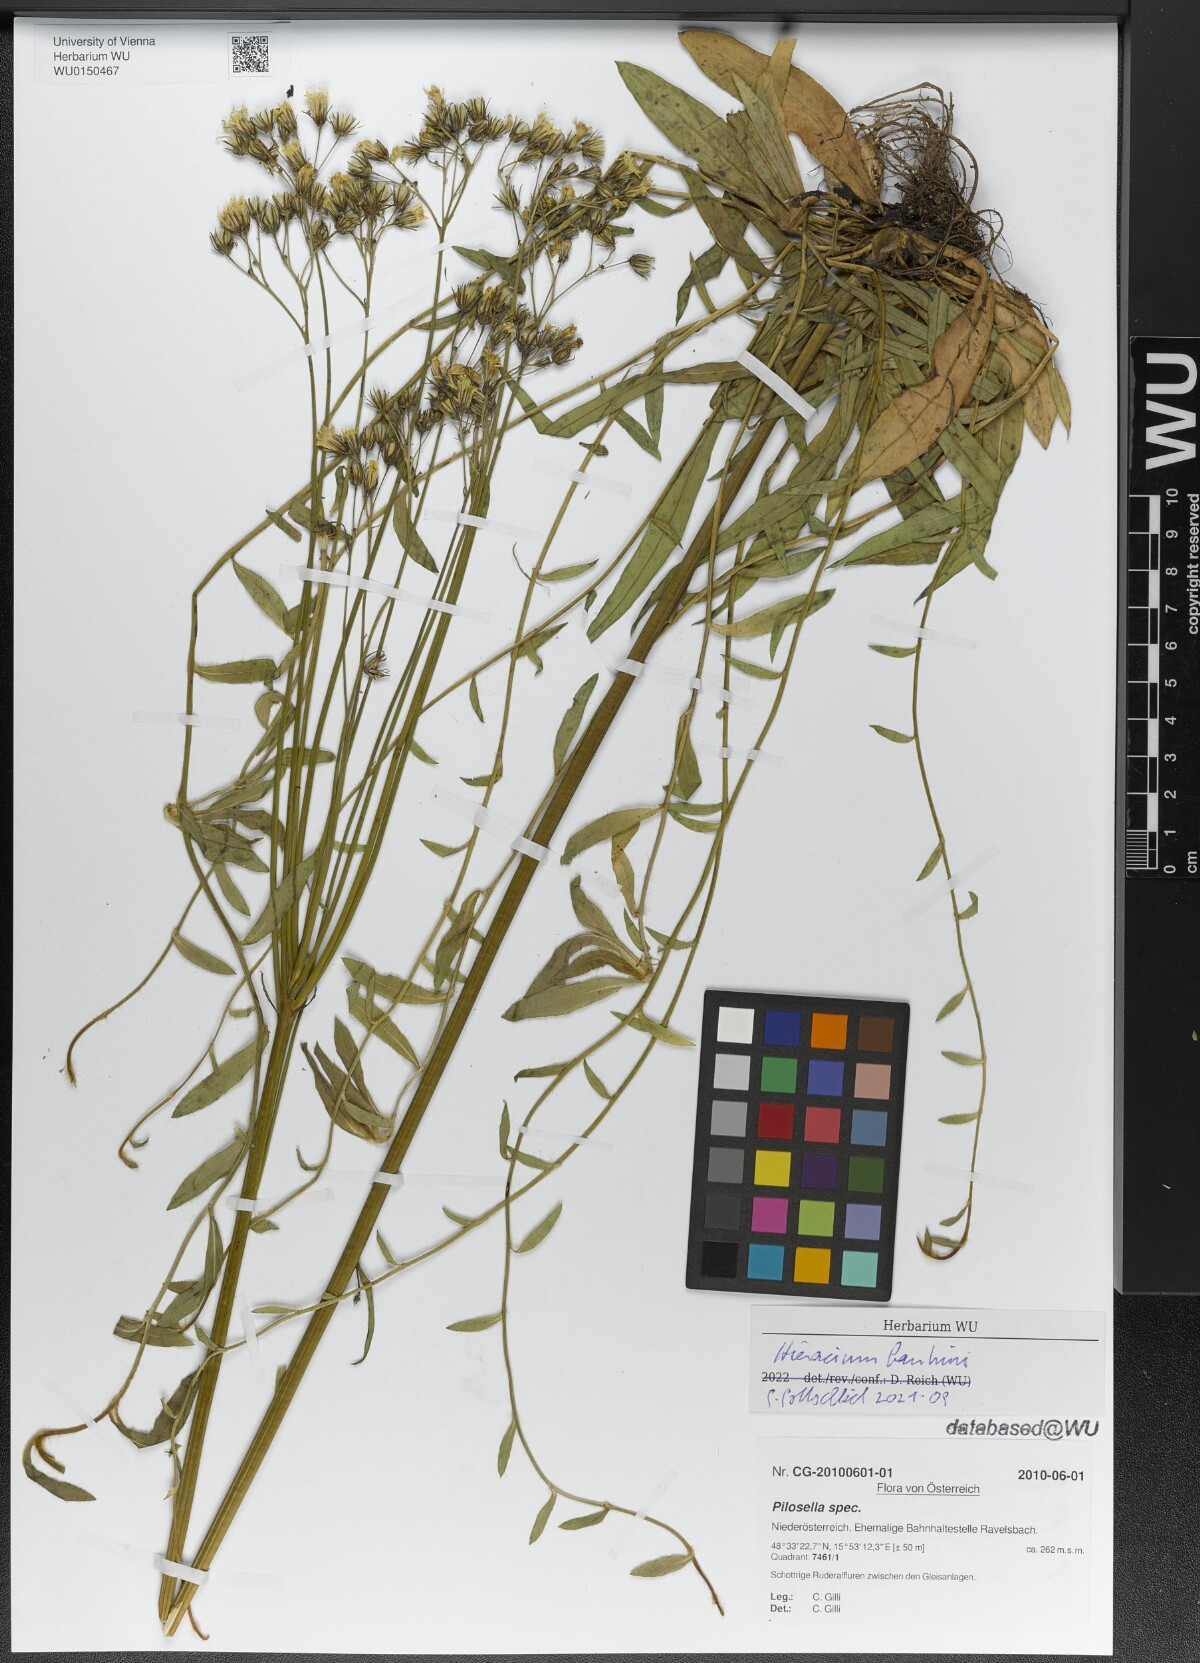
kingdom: Plantae
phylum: Tracheophyta
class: Magnoliopsida
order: Asterales
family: Asteraceae
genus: Pilosella
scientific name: Pilosella bauhini
